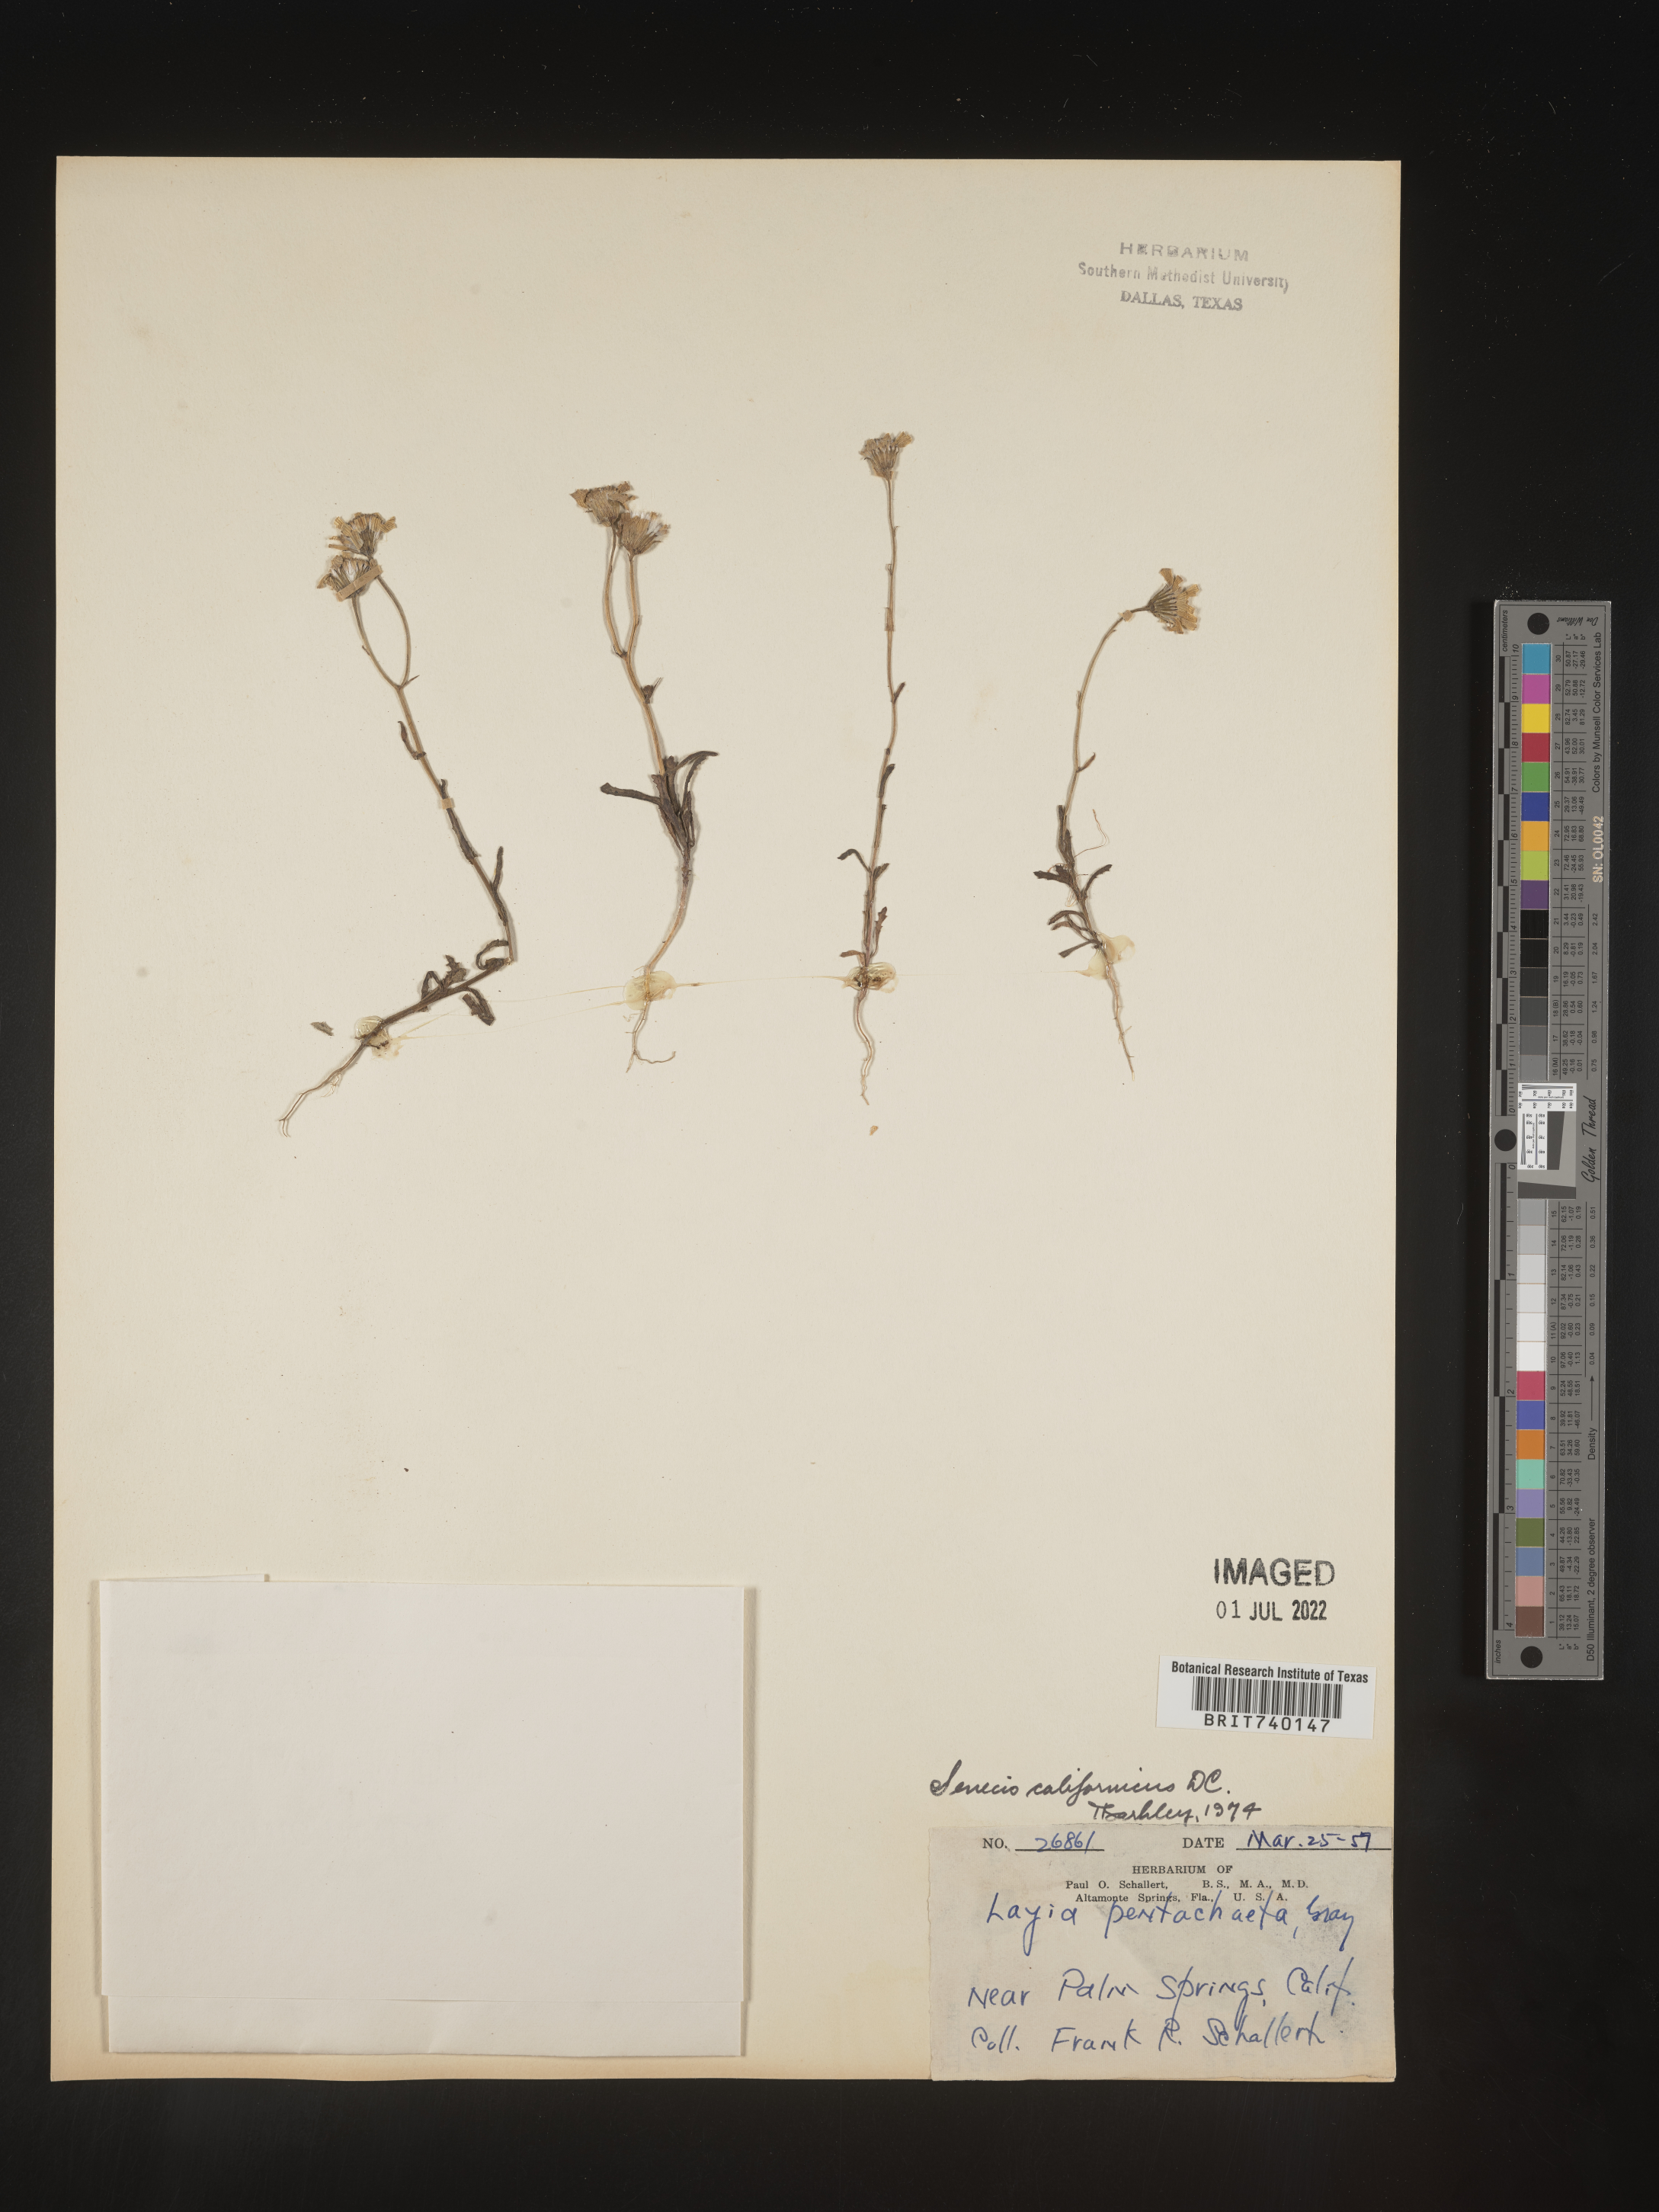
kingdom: Plantae
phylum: Tracheophyta
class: Magnoliopsida
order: Asterales
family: Asteraceae
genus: Senecio
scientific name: Senecio californicus
